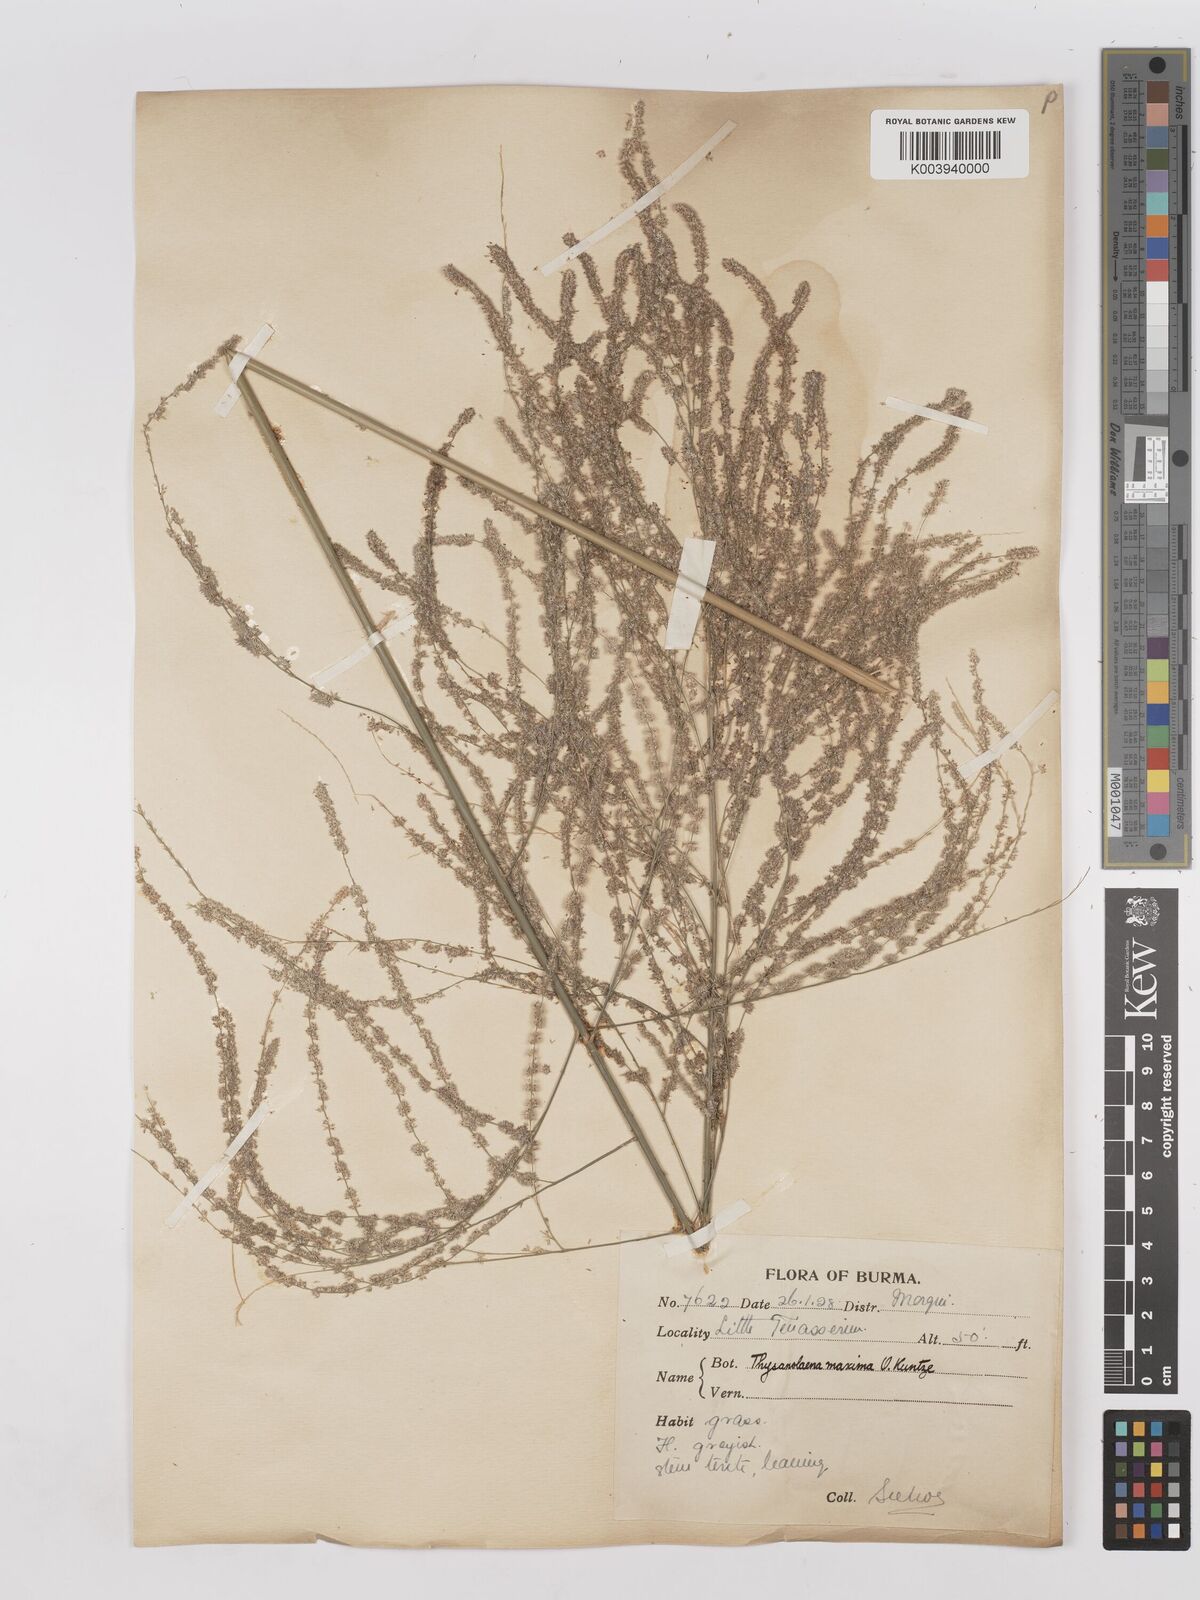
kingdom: Plantae
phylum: Tracheophyta
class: Liliopsida
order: Poales
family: Poaceae
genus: Thysanolaena
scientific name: Thysanolaena latifolia
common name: Tiger grass
